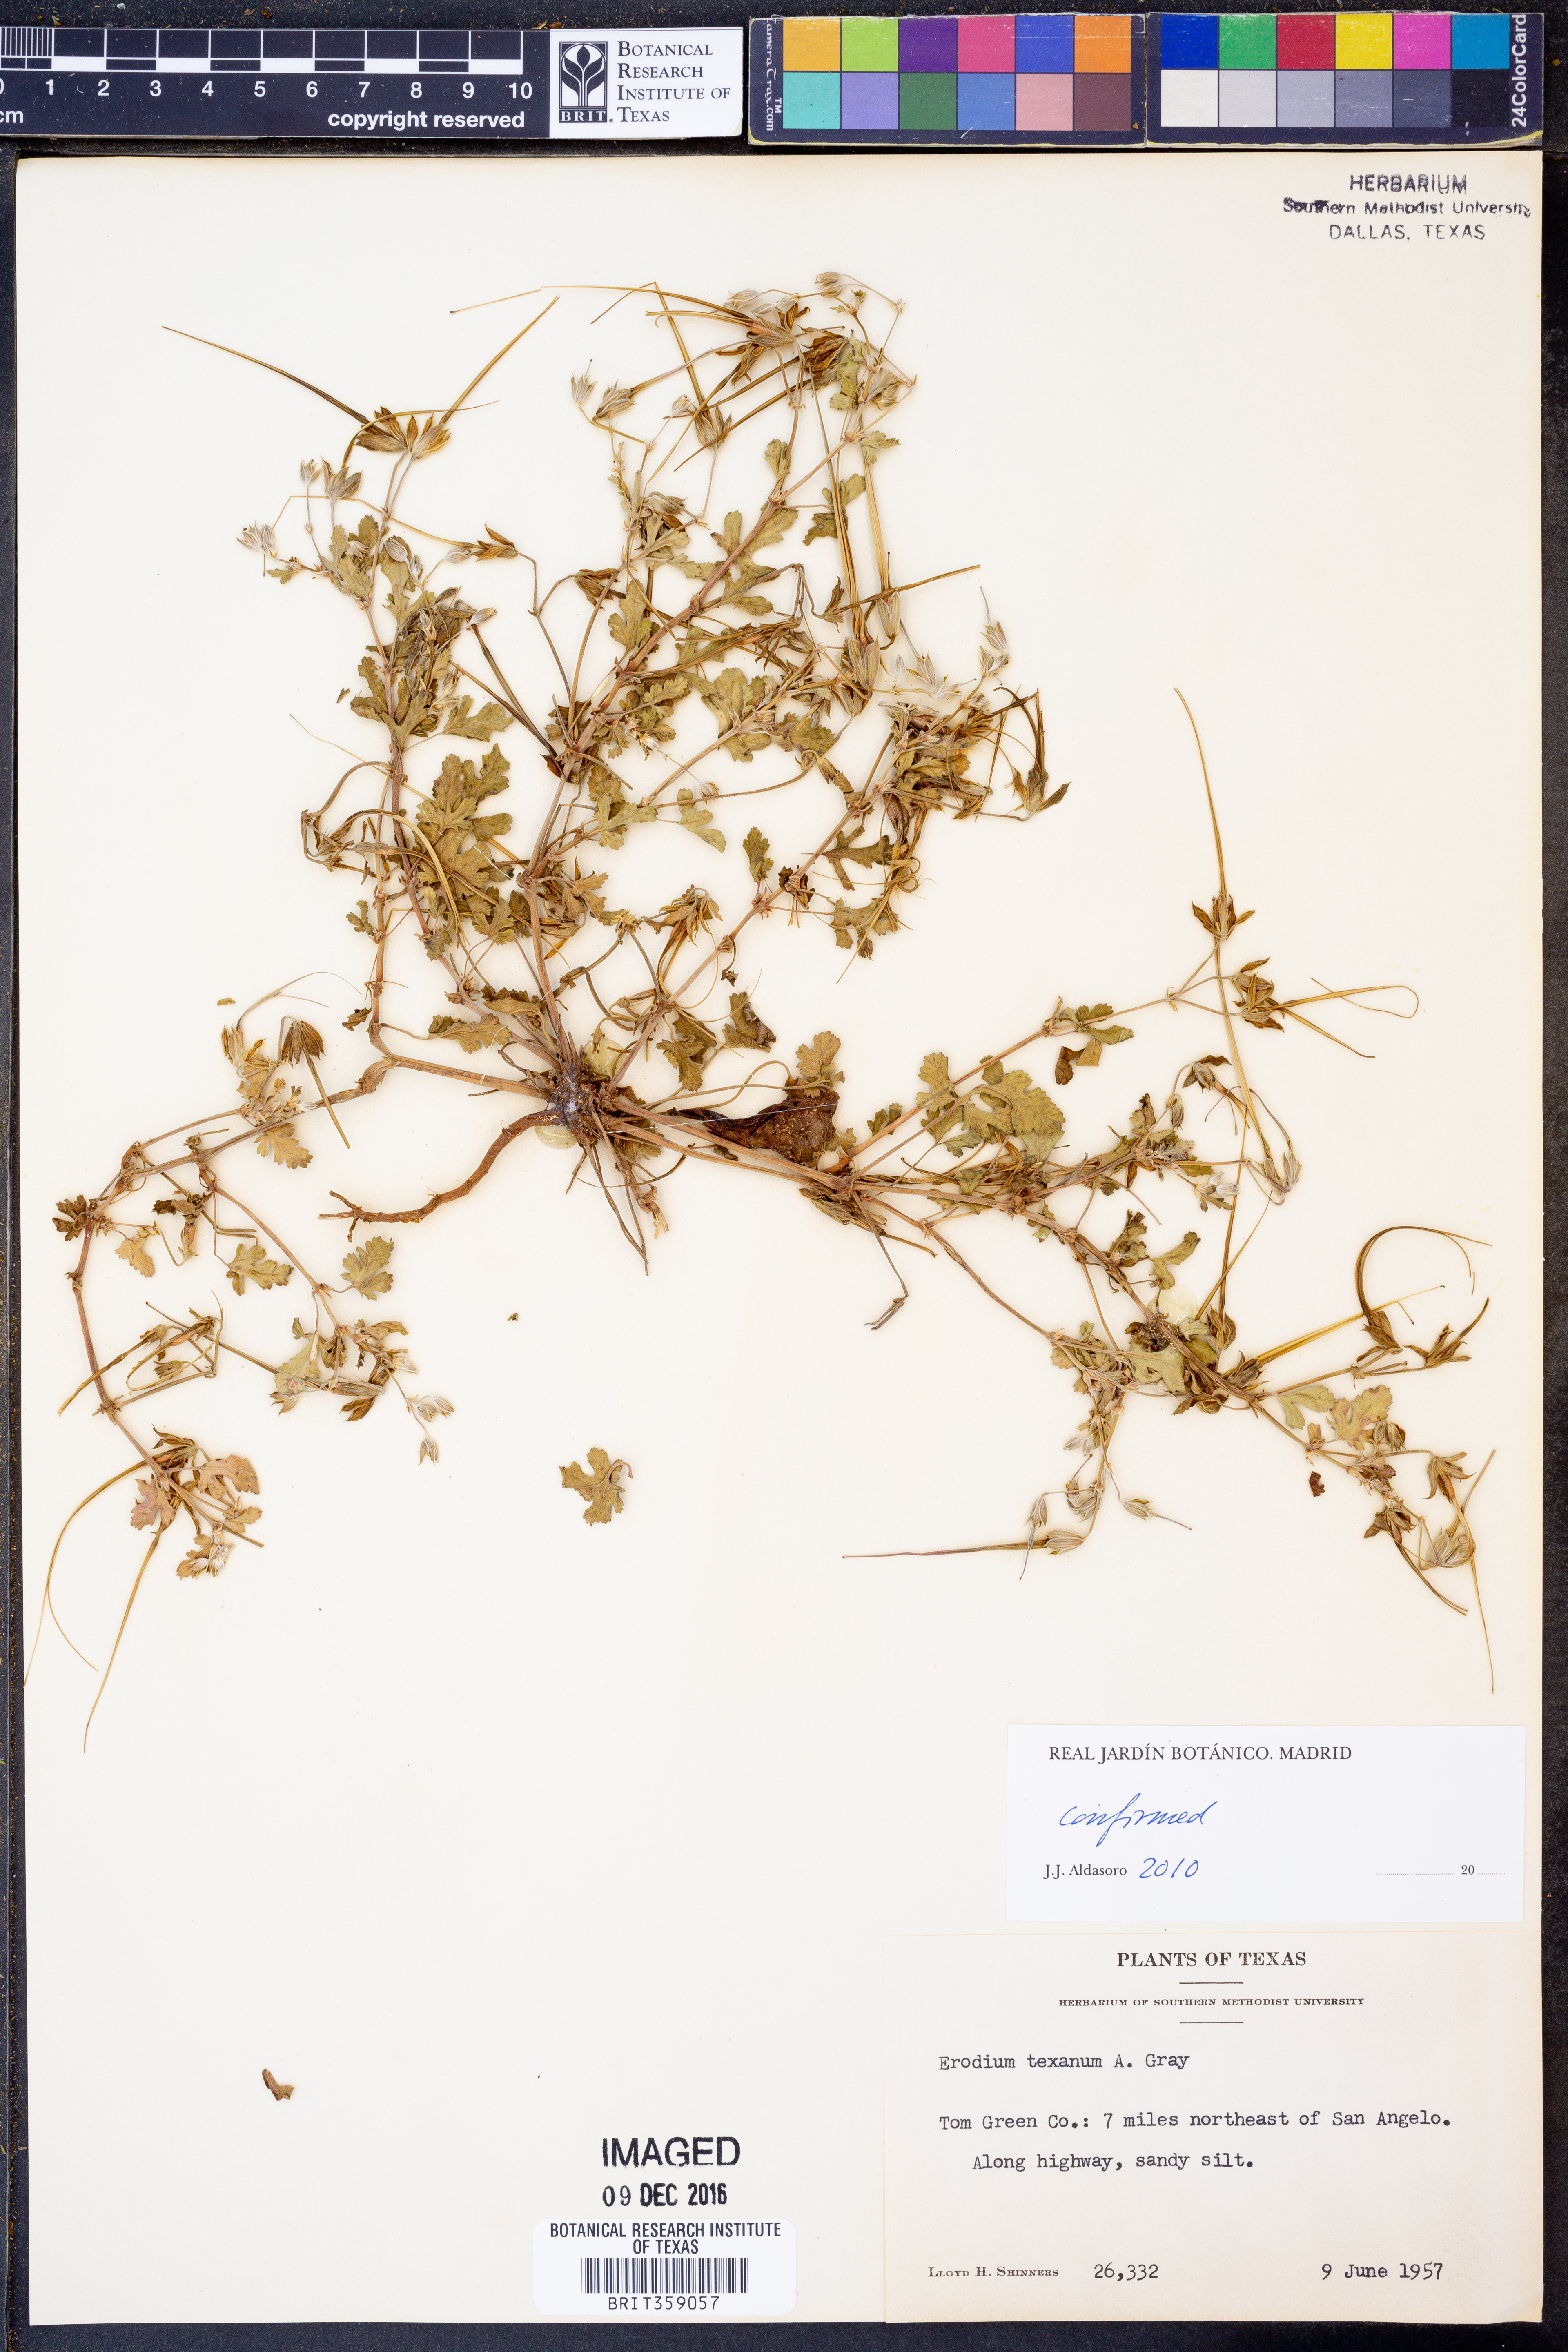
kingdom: Plantae
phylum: Tracheophyta
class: Magnoliopsida
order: Geraniales
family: Geraniaceae
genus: Erodium
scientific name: Erodium texanum
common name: Texas stork's-bill
